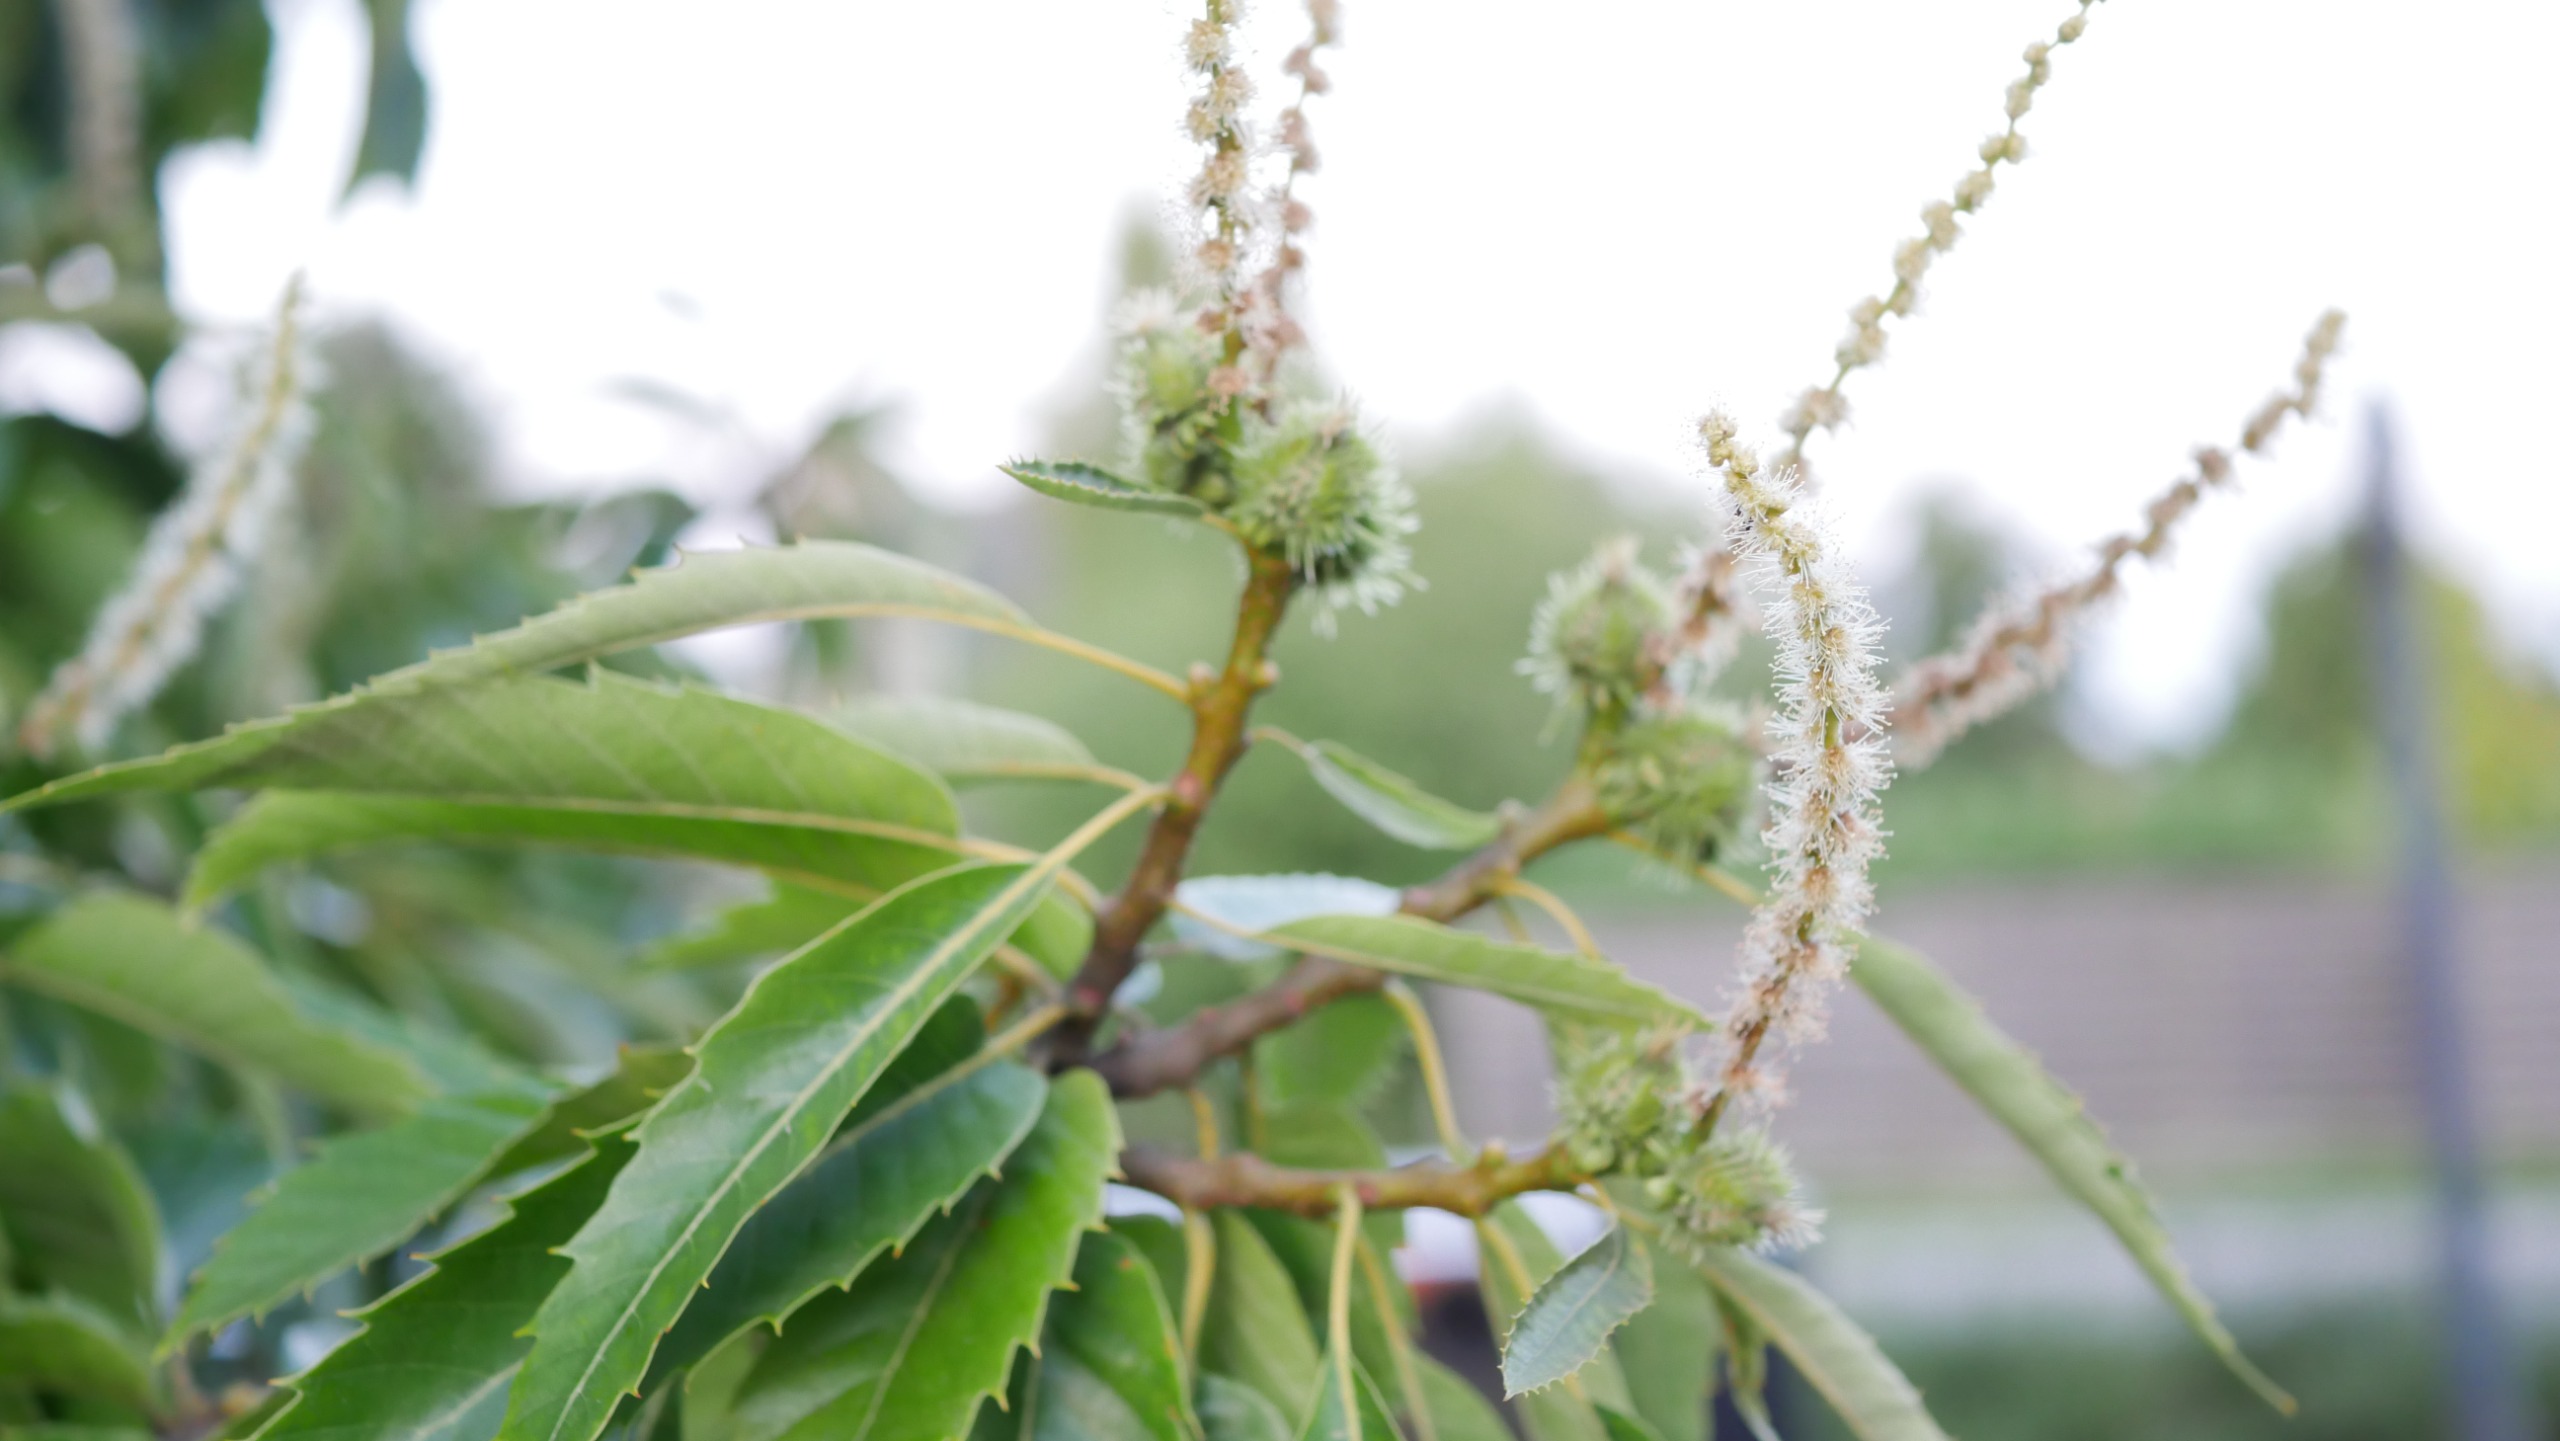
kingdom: Plantae
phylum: Tracheophyta
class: Magnoliopsida
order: Fagales
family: Fagaceae
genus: Castanea
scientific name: Castanea sativa
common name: Ægte kastanie
